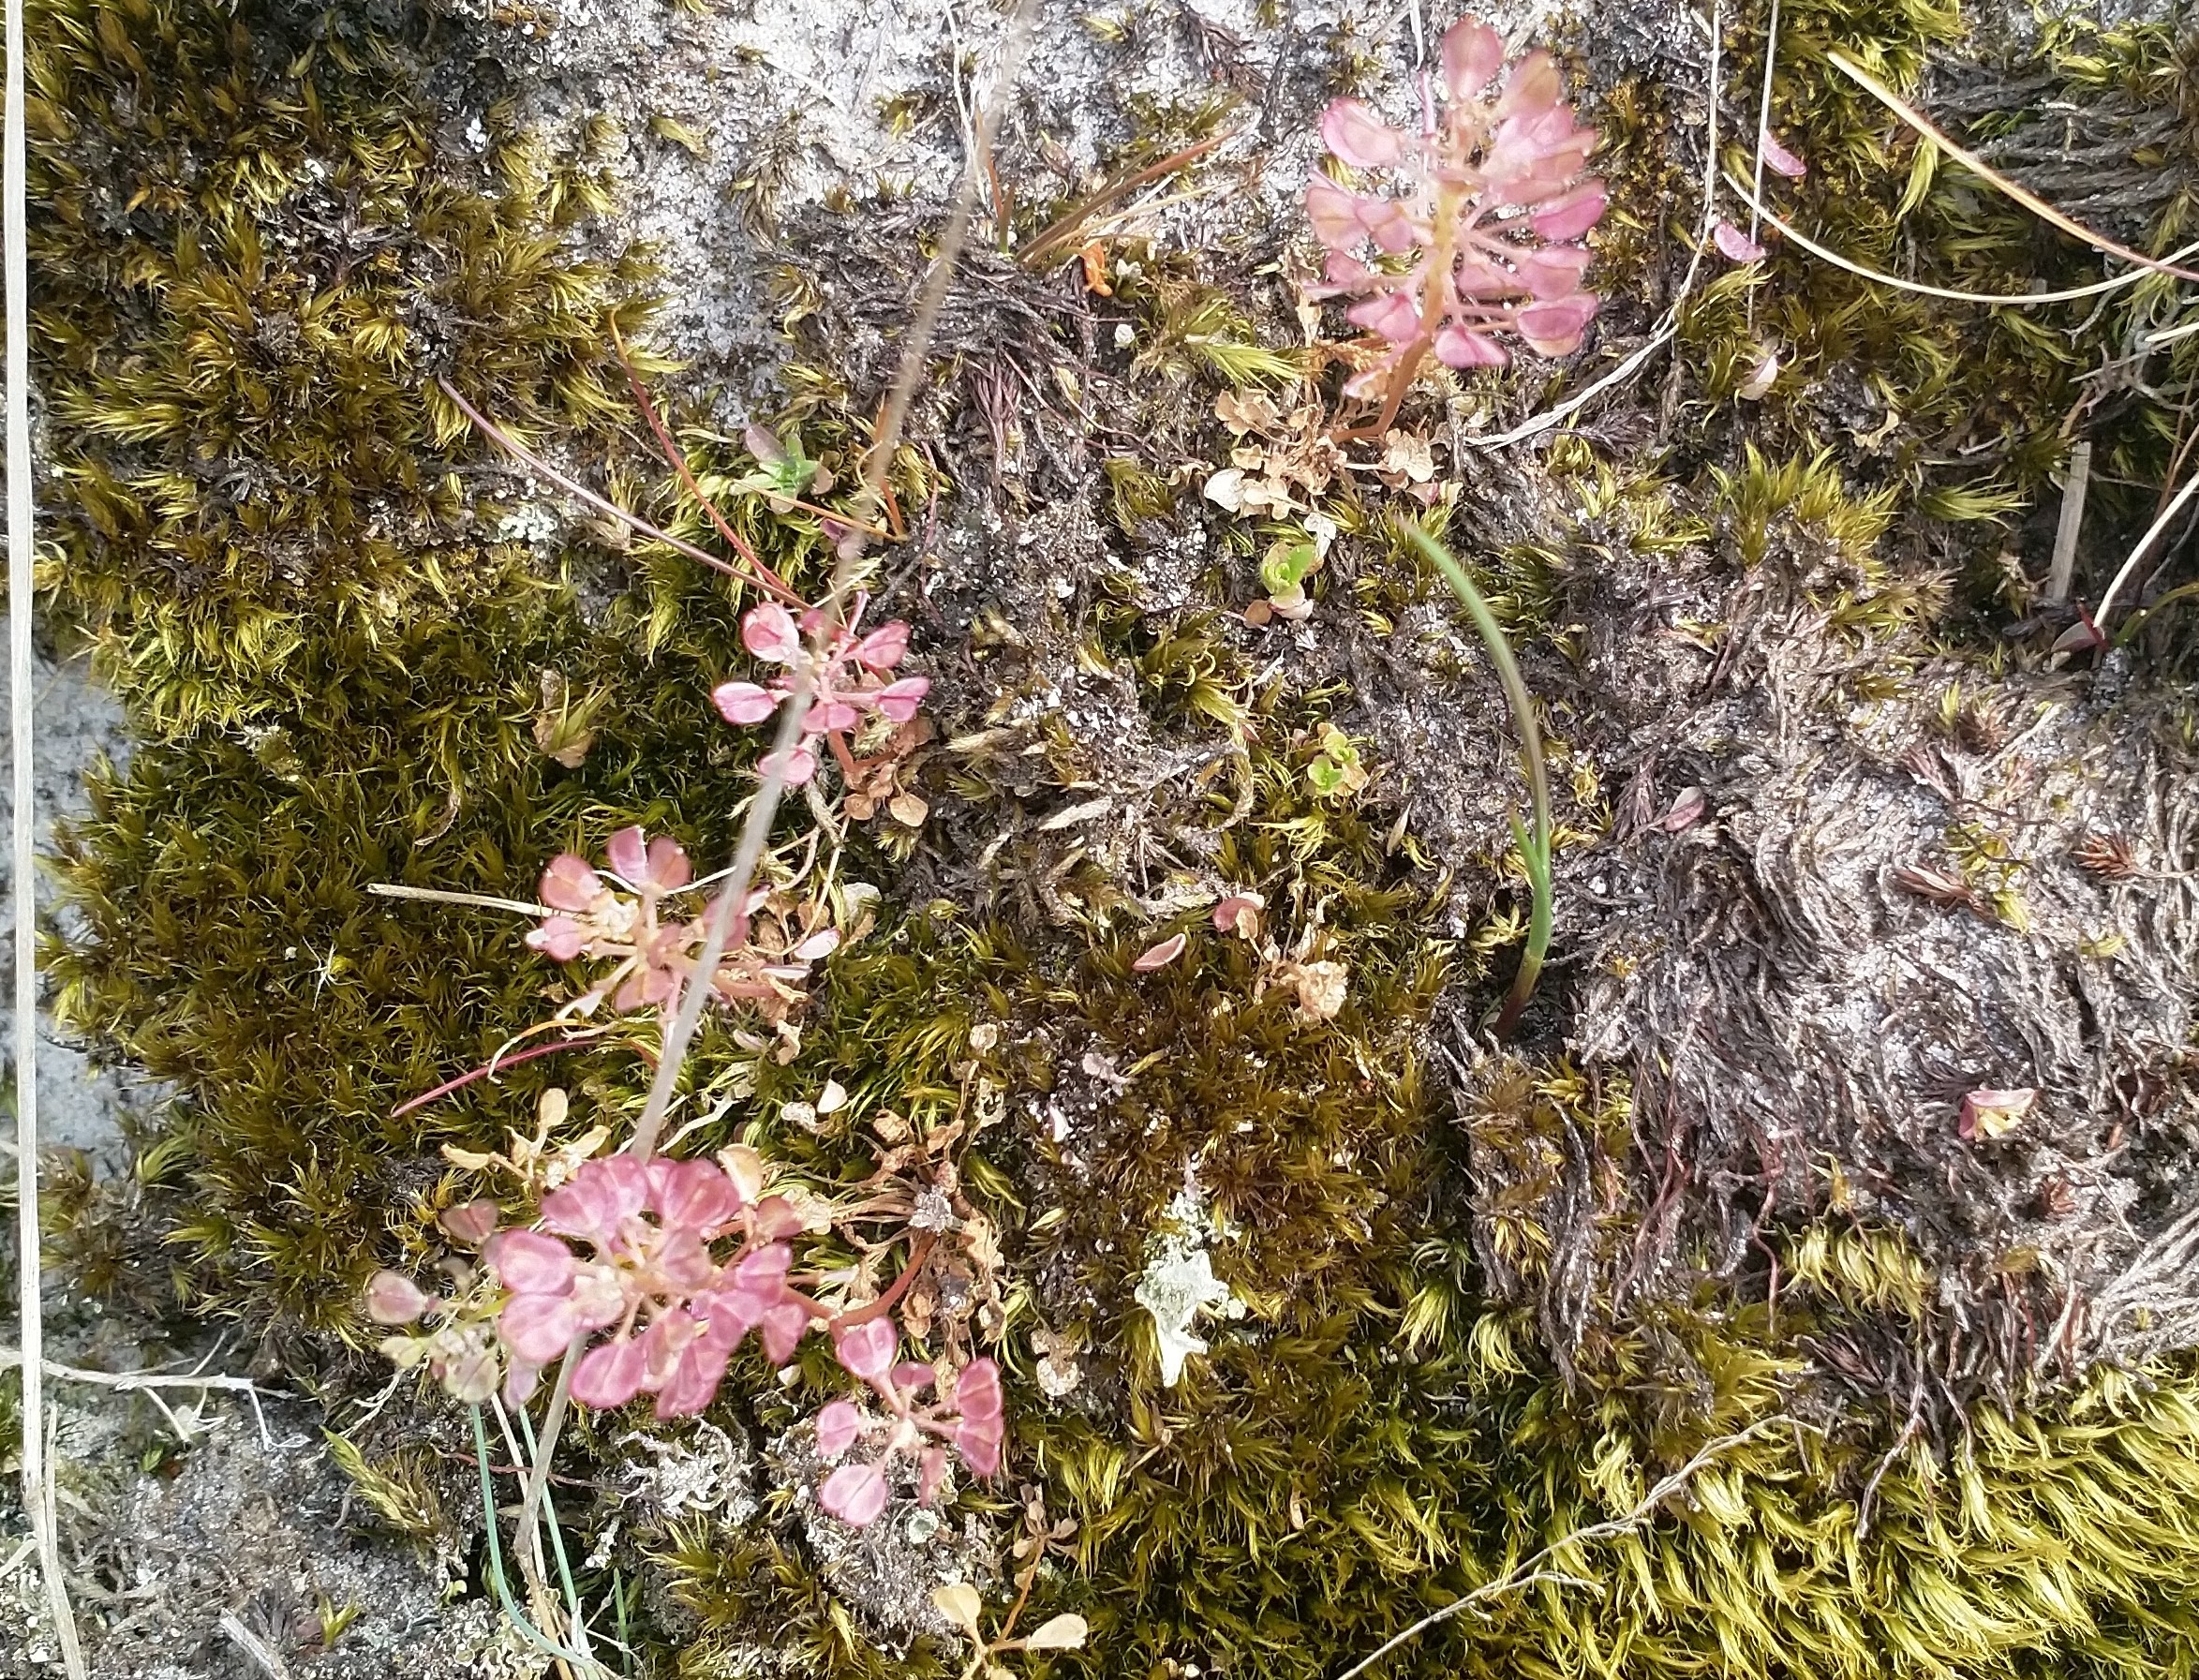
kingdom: Plantae
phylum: Tracheophyta
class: Magnoliopsida
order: Brassicales
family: Brassicaceae
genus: Teesdalia
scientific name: Teesdalia nudicaulis
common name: Flipkrave
